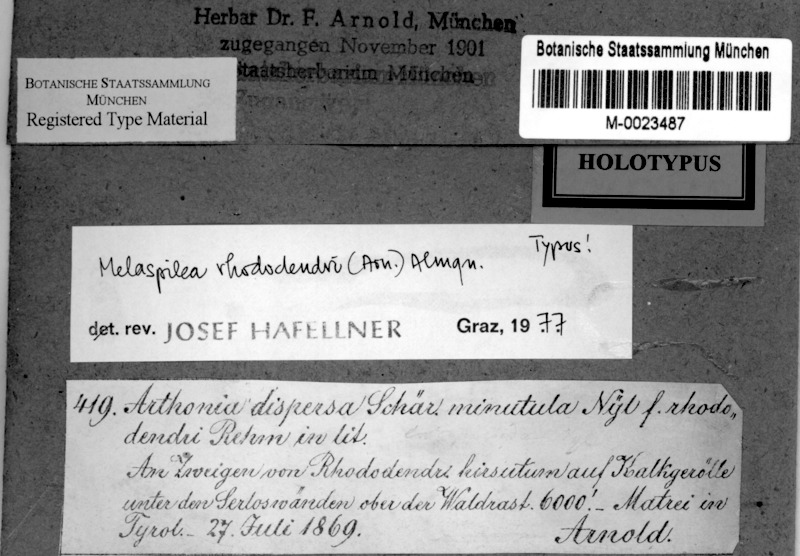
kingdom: Fungi
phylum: Ascomycota
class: Dothideomycetes
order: Eremithallales
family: Melaspileaceae
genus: Melaspilea
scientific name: Melaspilea rhododendri
